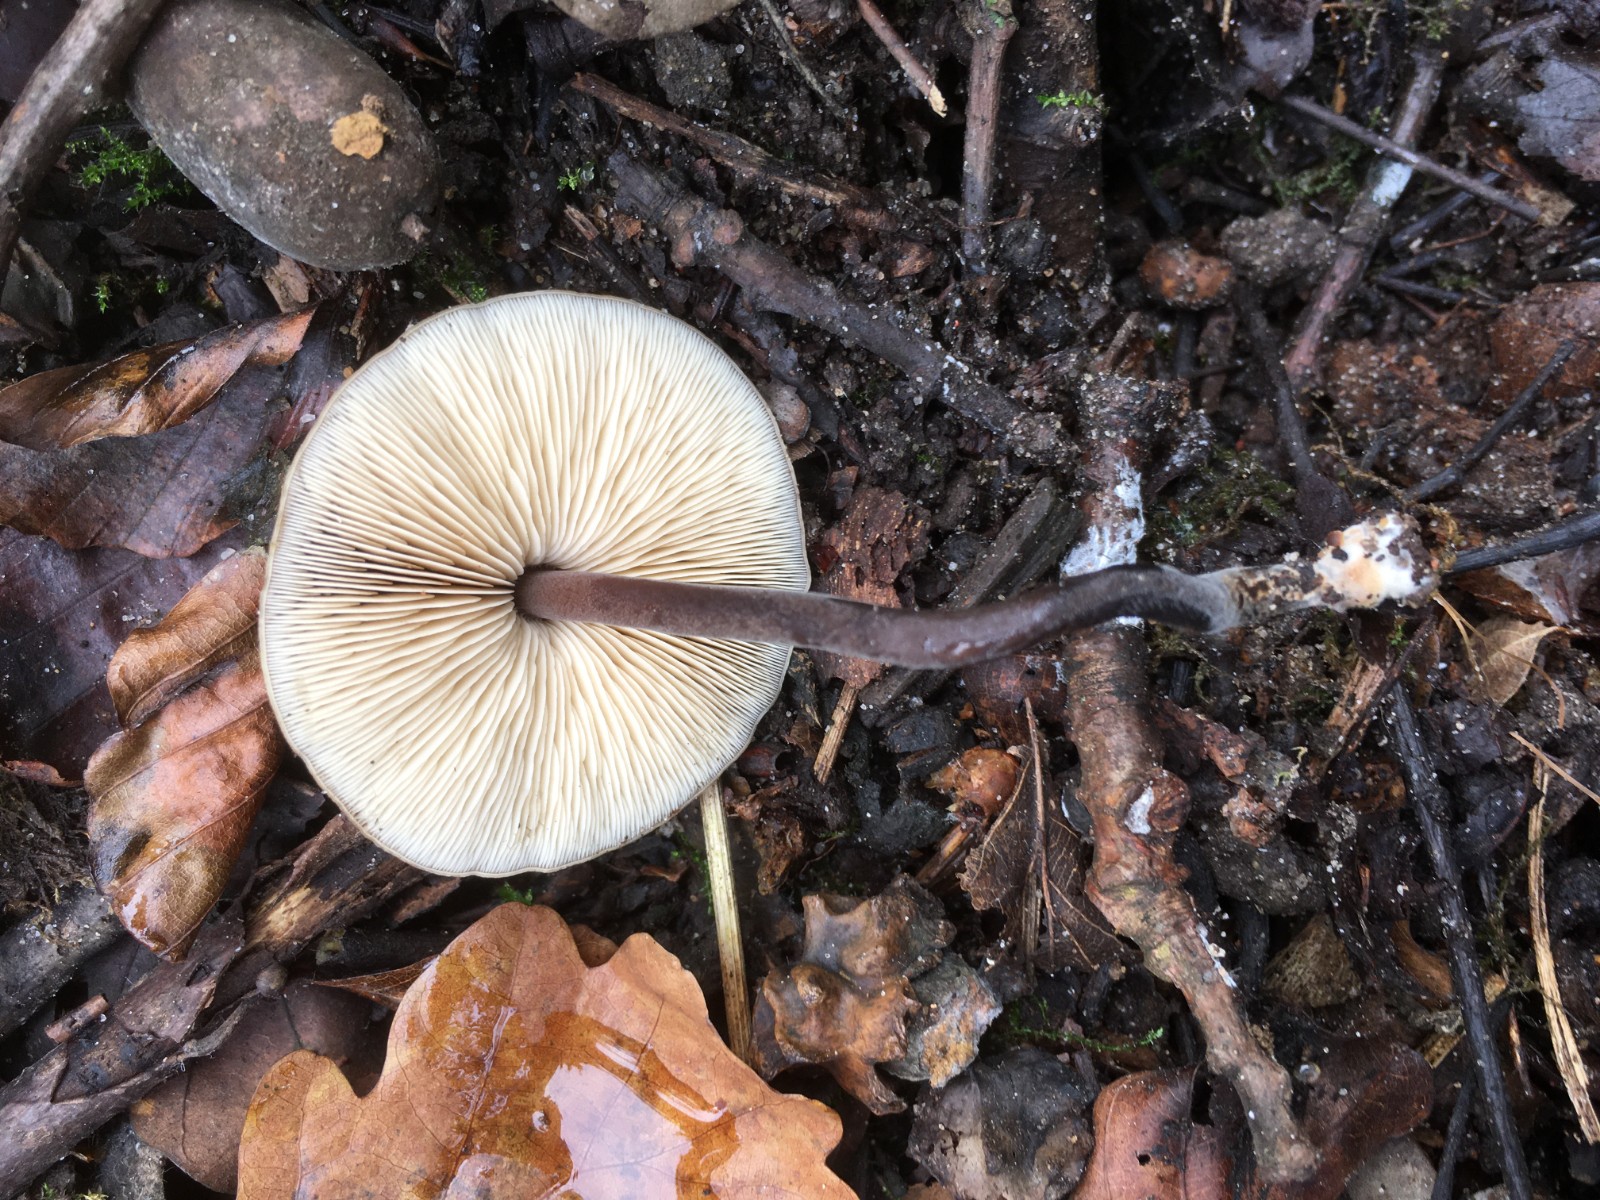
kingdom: Fungi
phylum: Basidiomycota
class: Agaricomycetes
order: Agaricales
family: Macrocystidiaceae
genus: Macrocystidia
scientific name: Macrocystidia cucumis
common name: agurkehat
